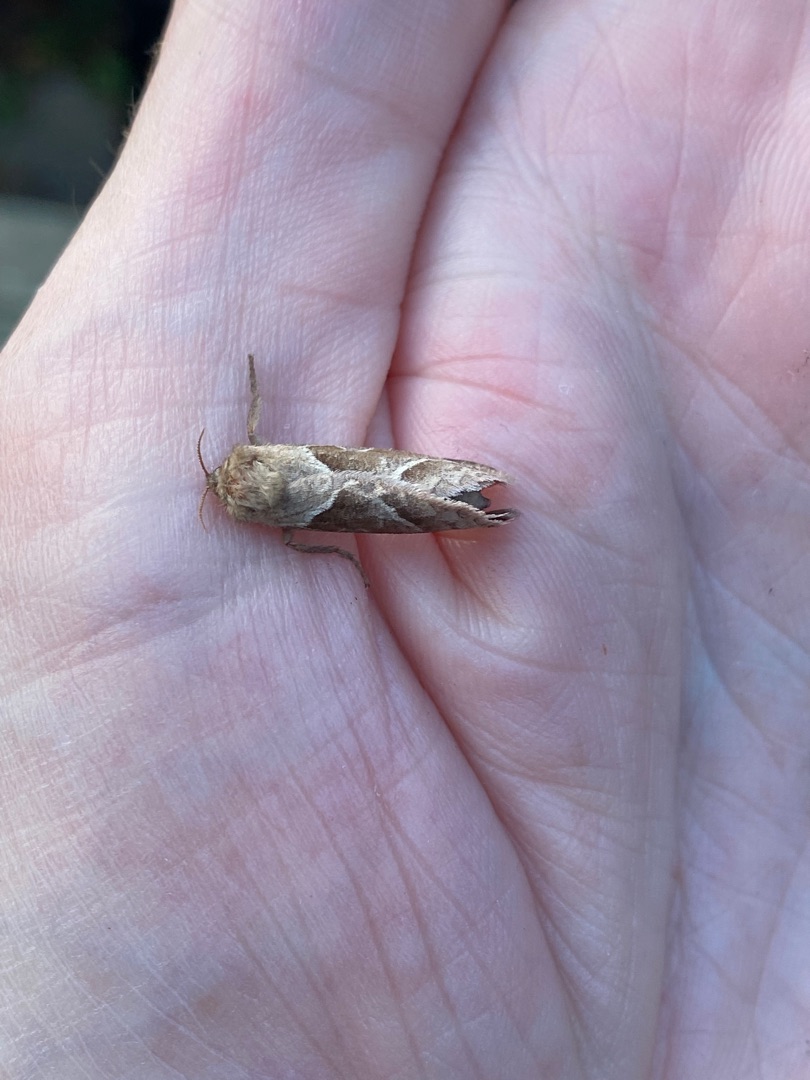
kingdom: Animalia
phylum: Arthropoda
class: Insecta
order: Lepidoptera
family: Hepialidae
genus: Triodia
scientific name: Triodia sylvina
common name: Skræpperodæder
